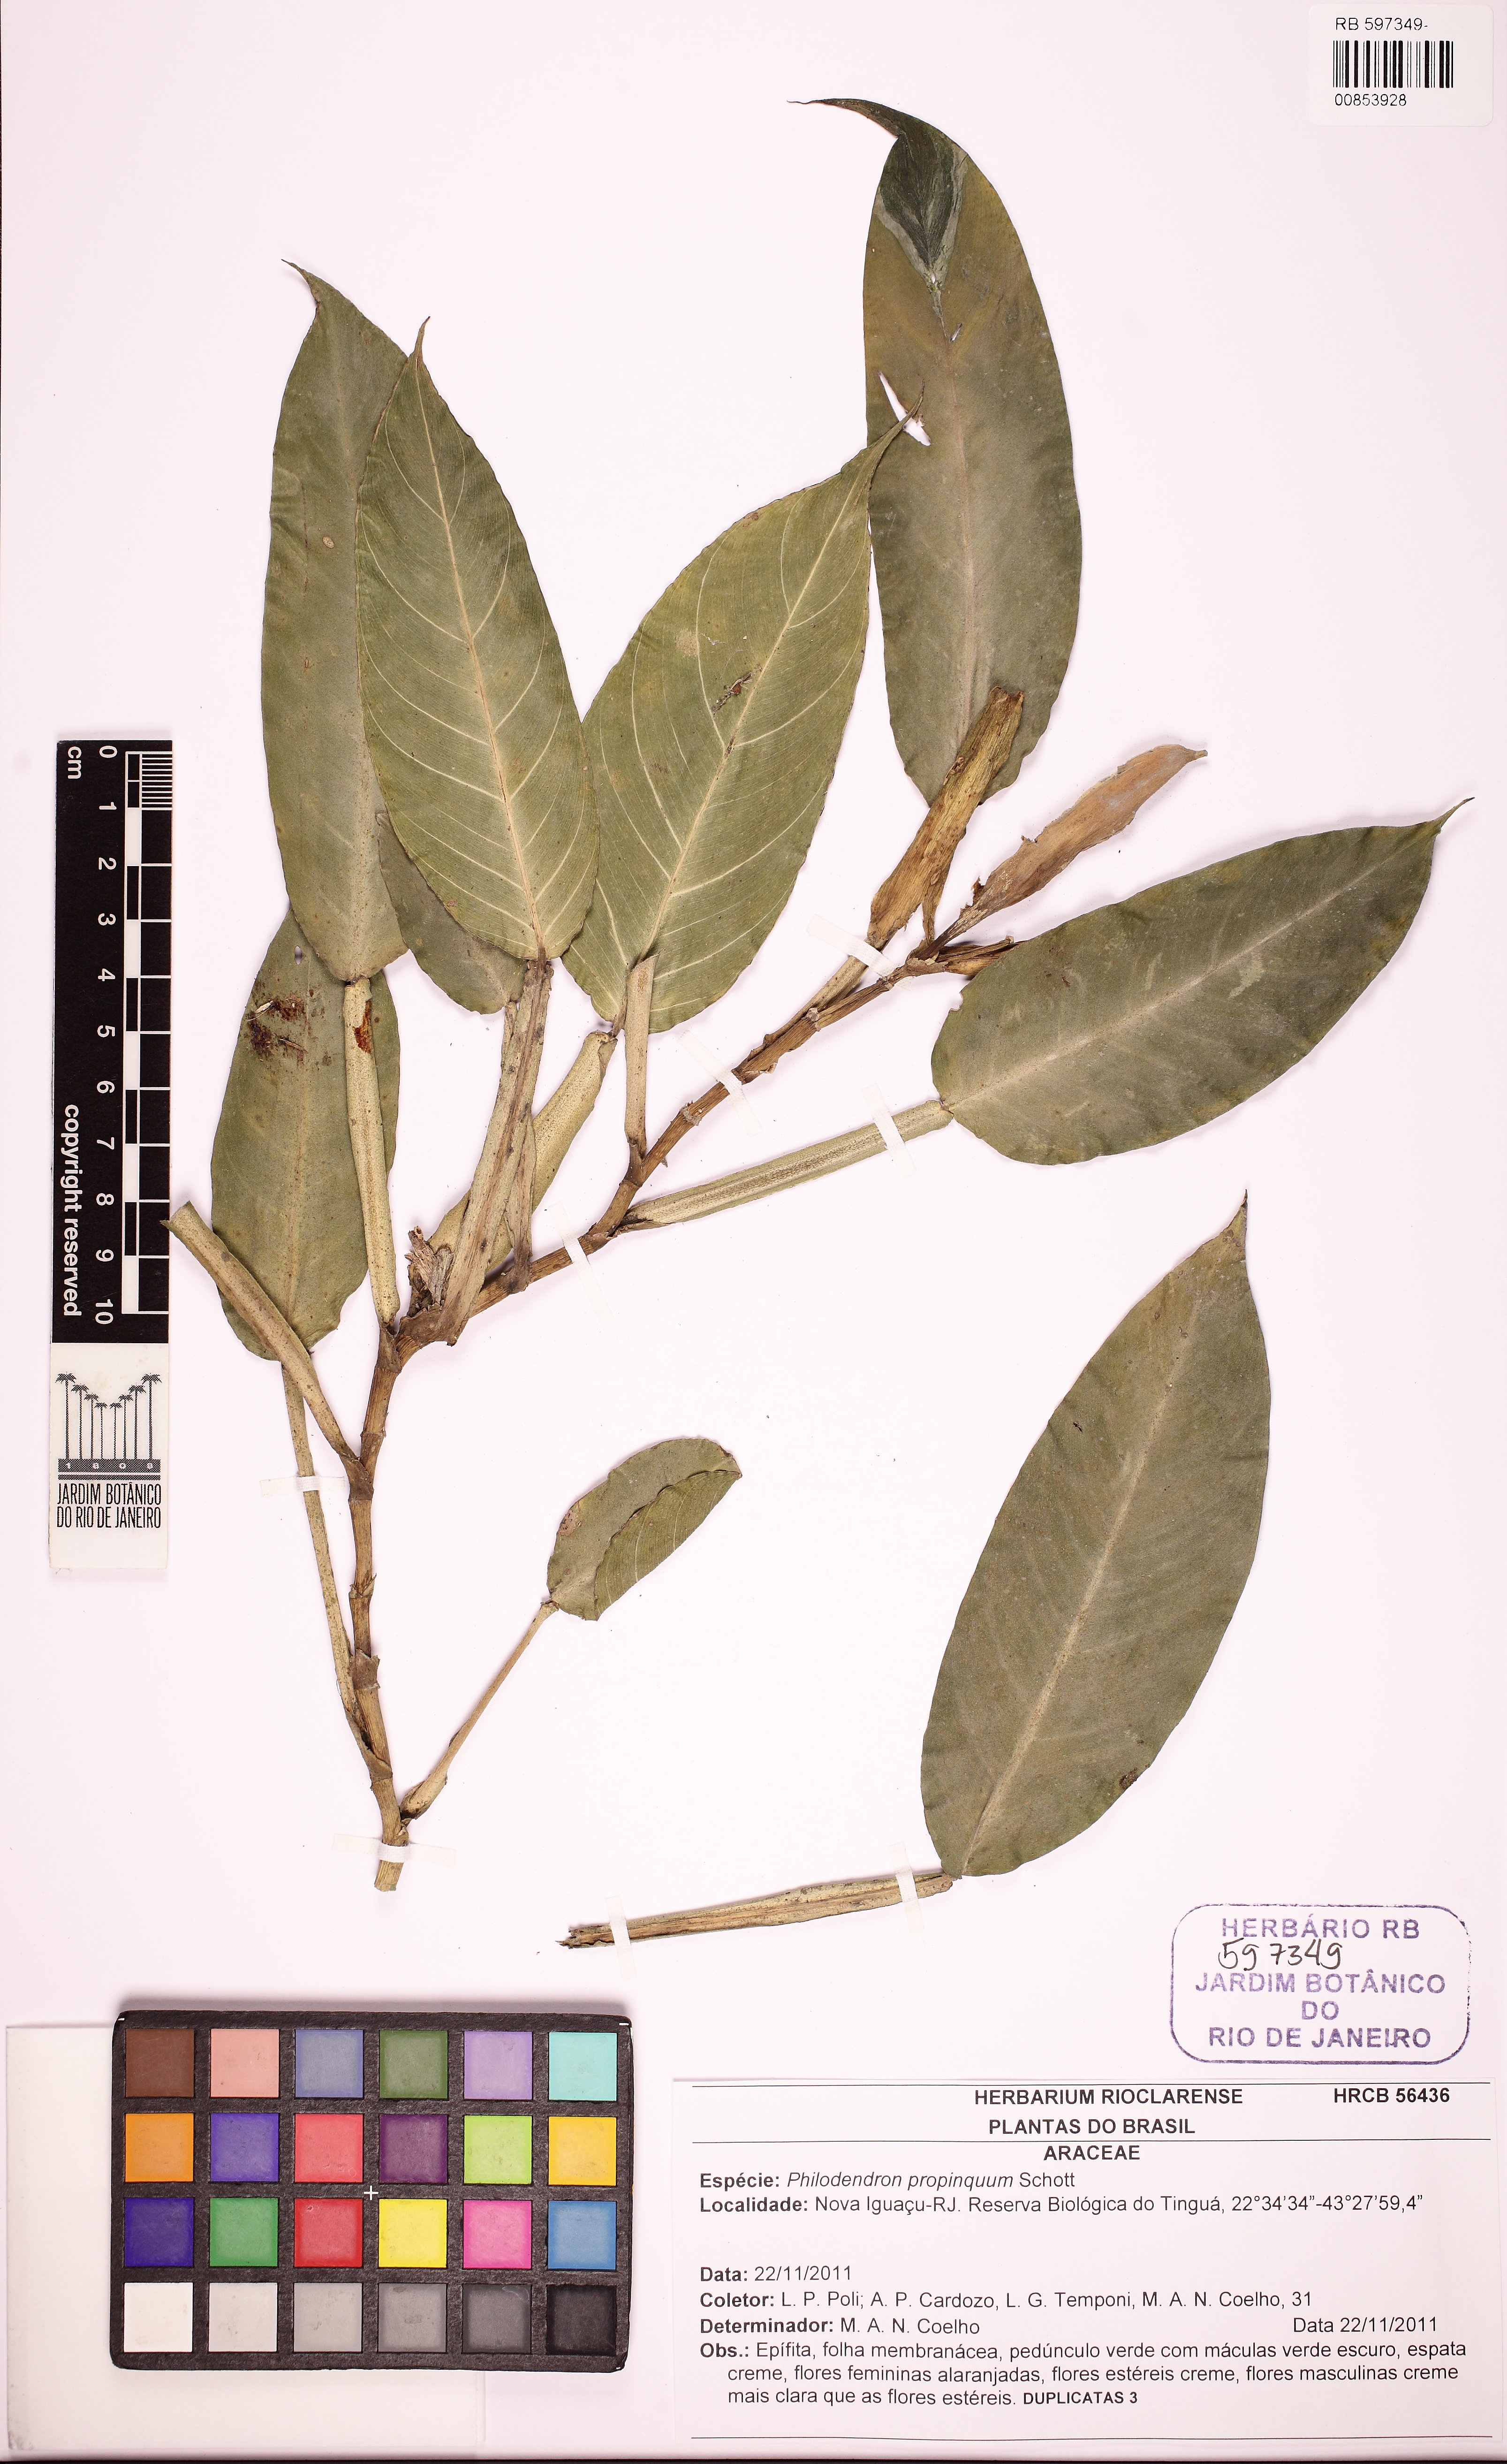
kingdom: Plantae
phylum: Tracheophyta
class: Liliopsida
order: Alismatales
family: Araceae
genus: Philodendron
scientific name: Philodendron propinquum
